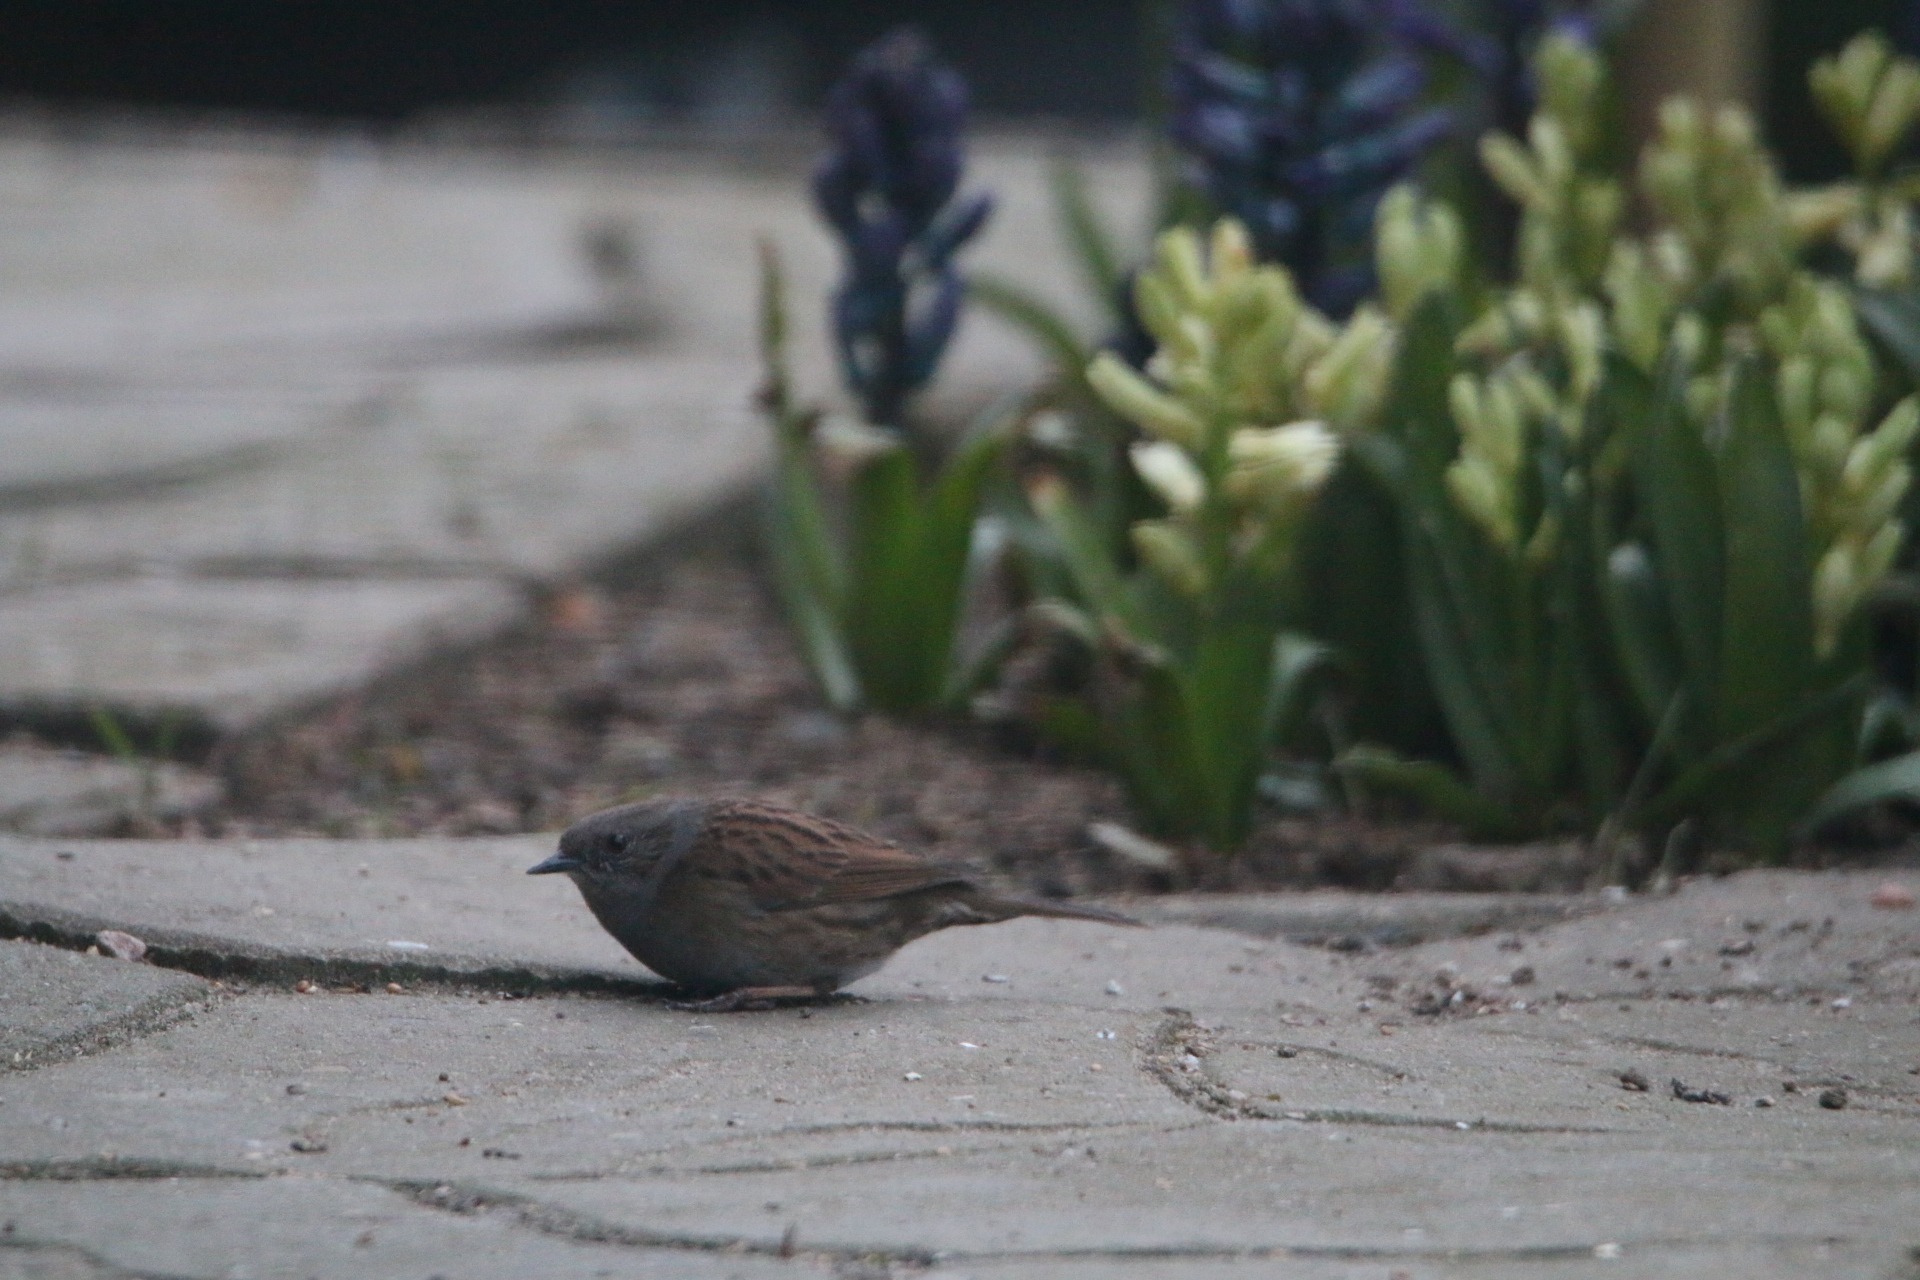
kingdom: Animalia
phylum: Chordata
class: Aves
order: Passeriformes
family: Prunellidae
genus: Prunella
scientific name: Prunella modularis
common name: Jernspurv
